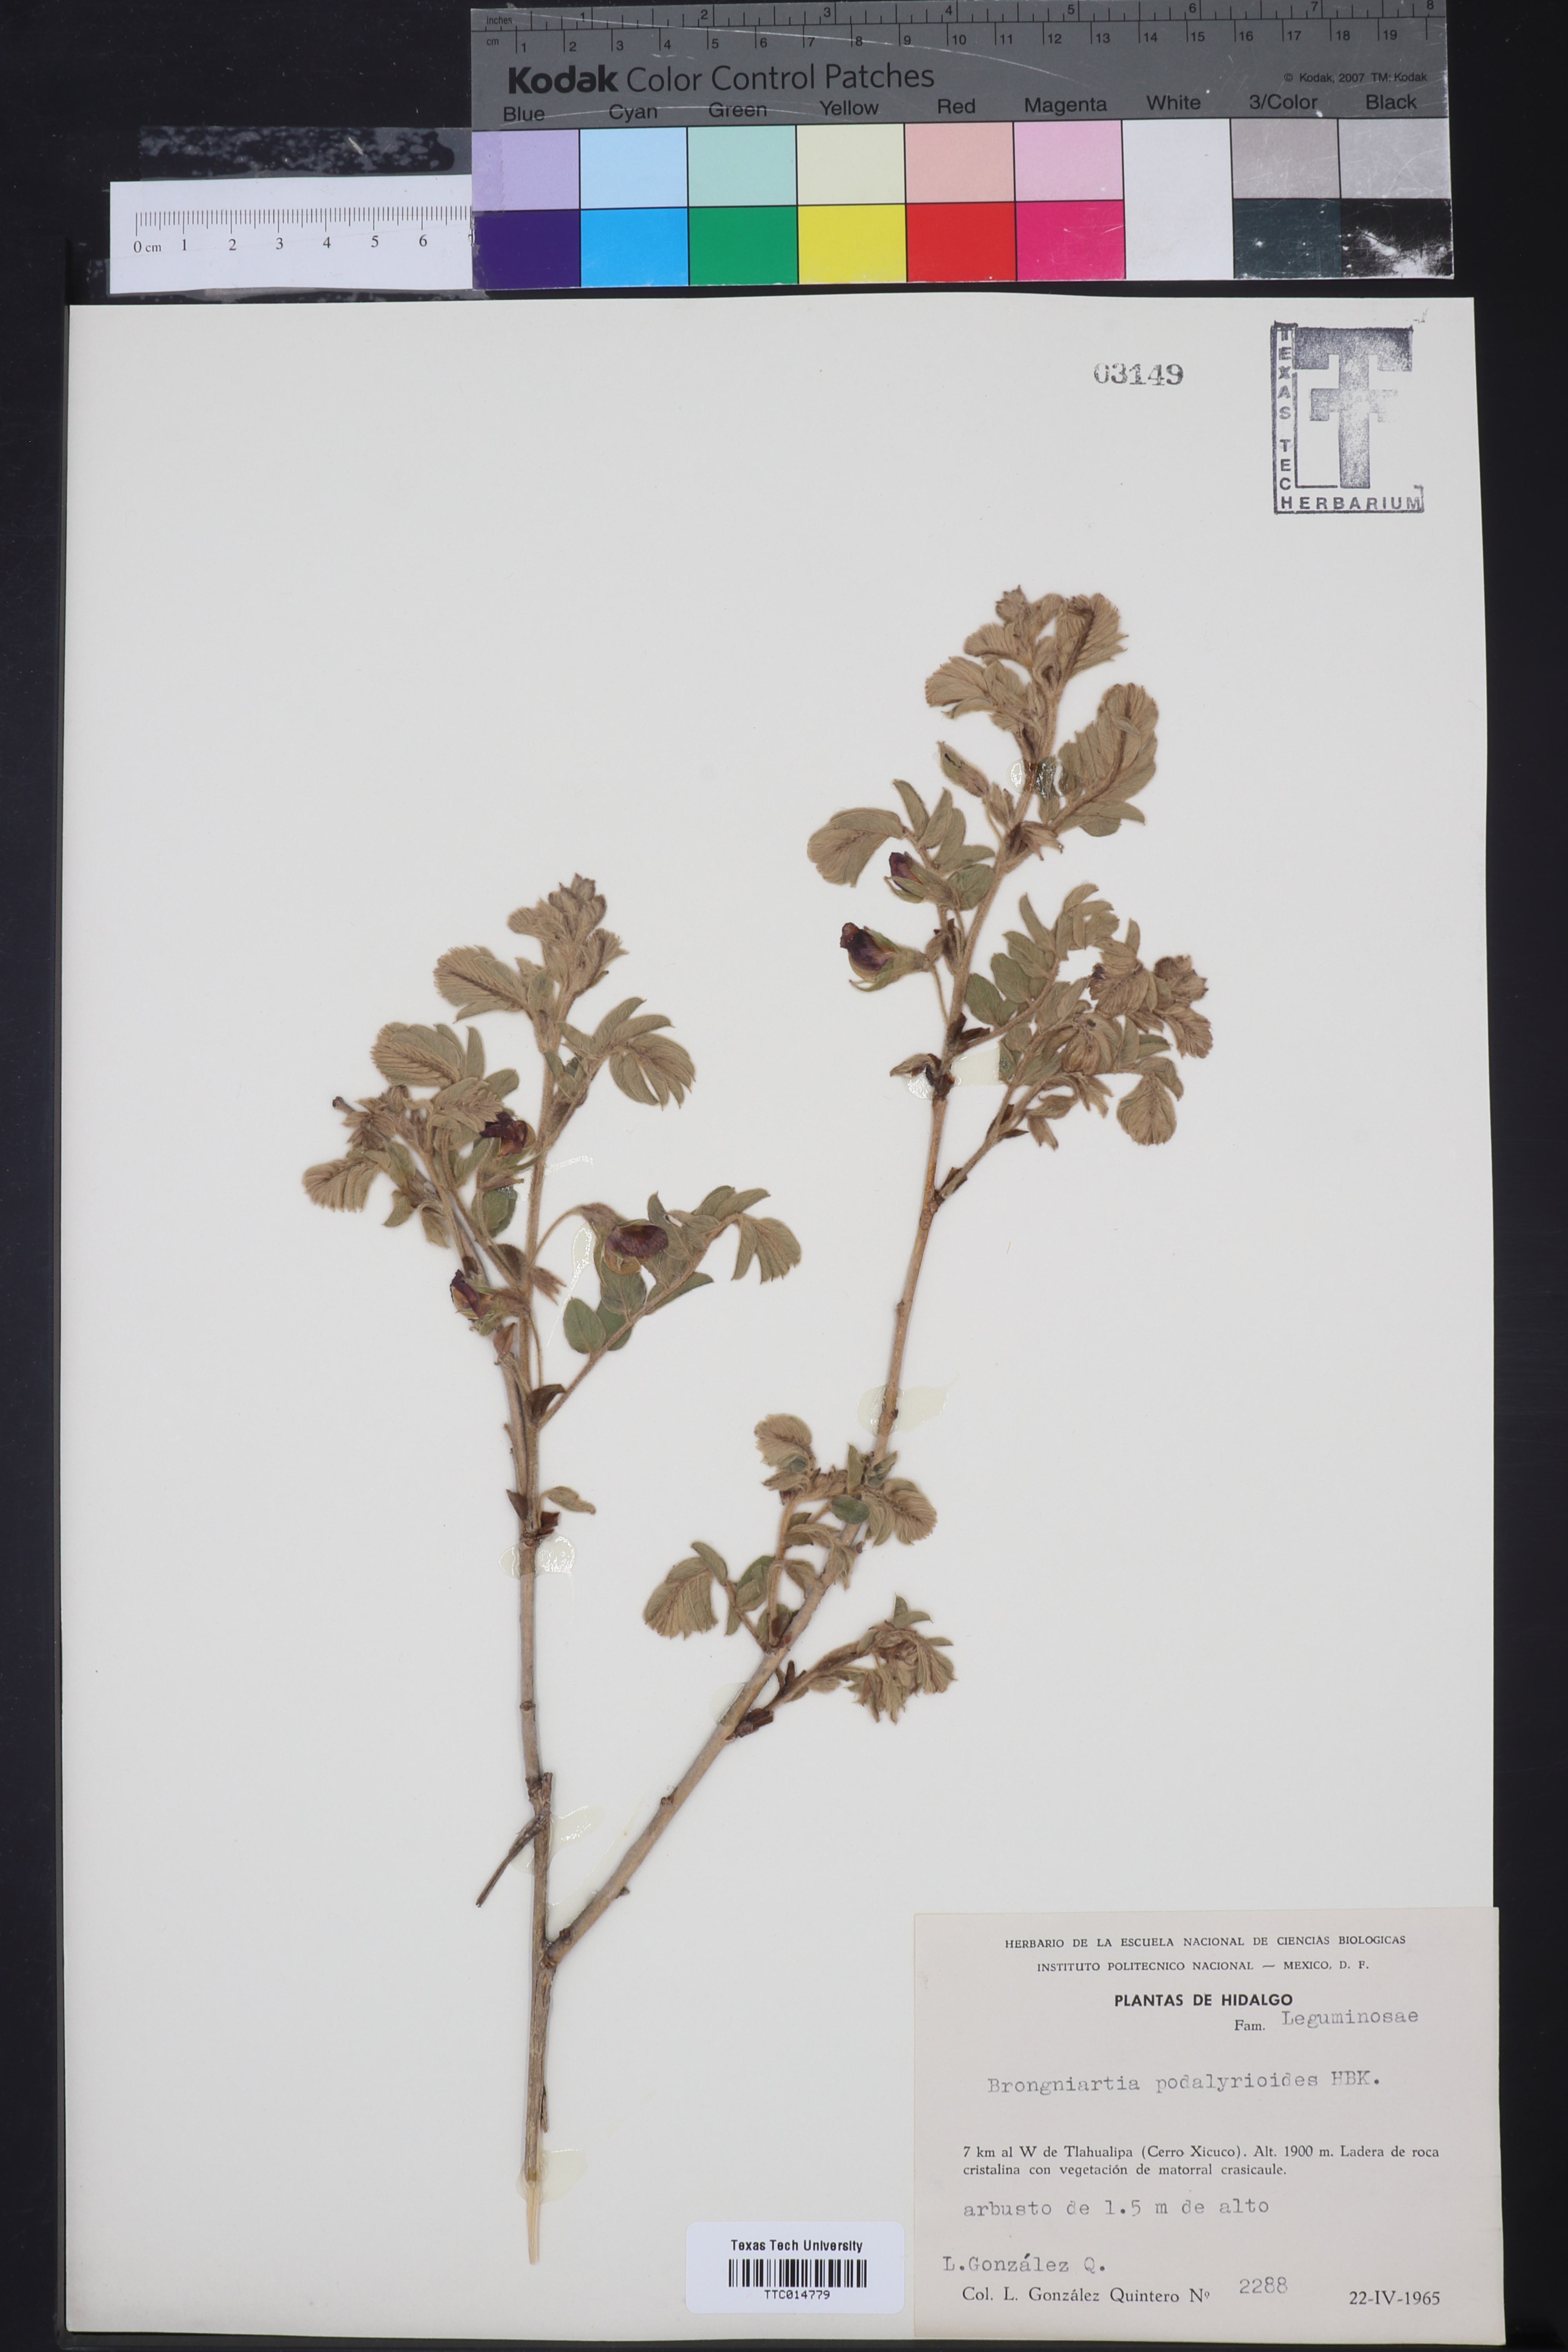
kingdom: Plantae
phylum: Tracheophyta
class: Magnoliopsida
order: Fabales
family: Fabaceae
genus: Brongniartia
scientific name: Brongniartia podalyrioides
